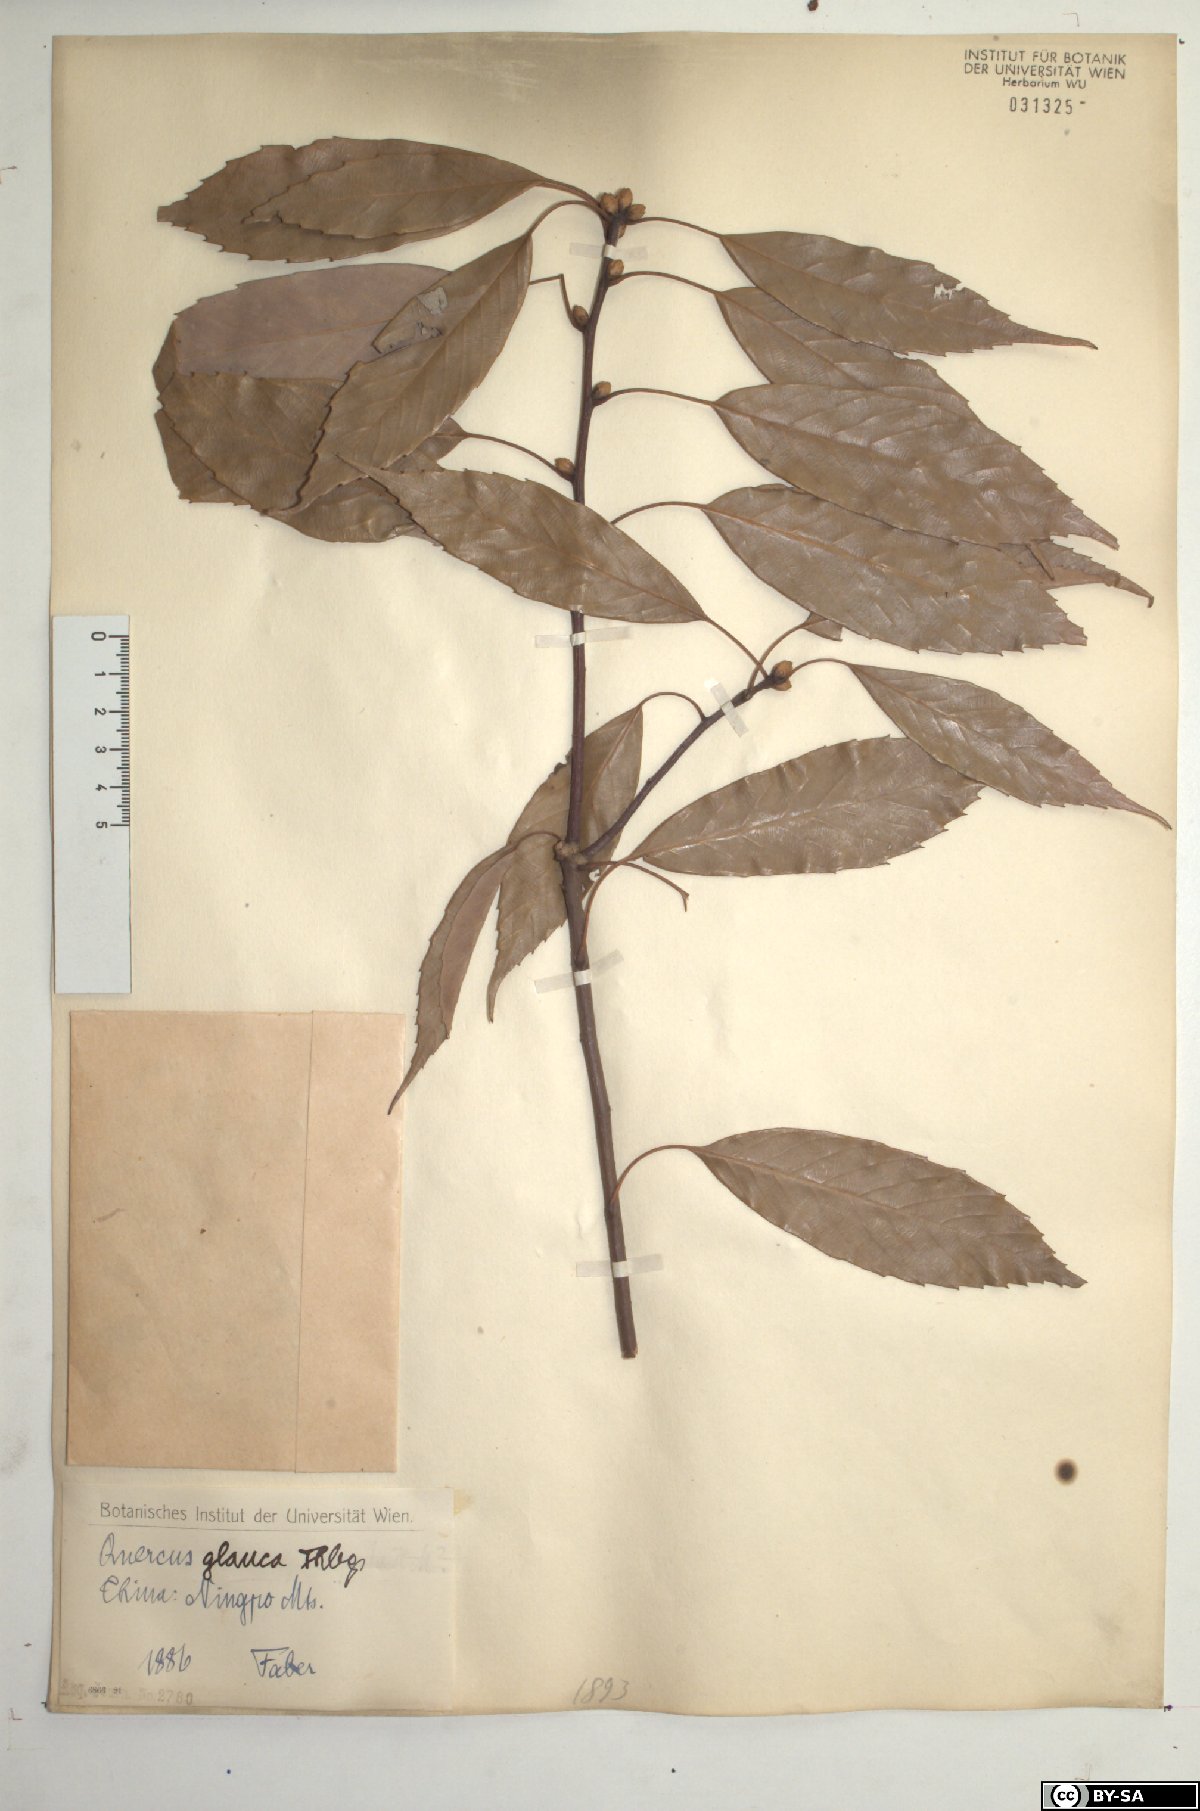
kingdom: Plantae
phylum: Tracheophyta
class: Magnoliopsida
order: Fagales
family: Fagaceae
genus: Quercus
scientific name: Quercus glauca
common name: Ring-cup oak
